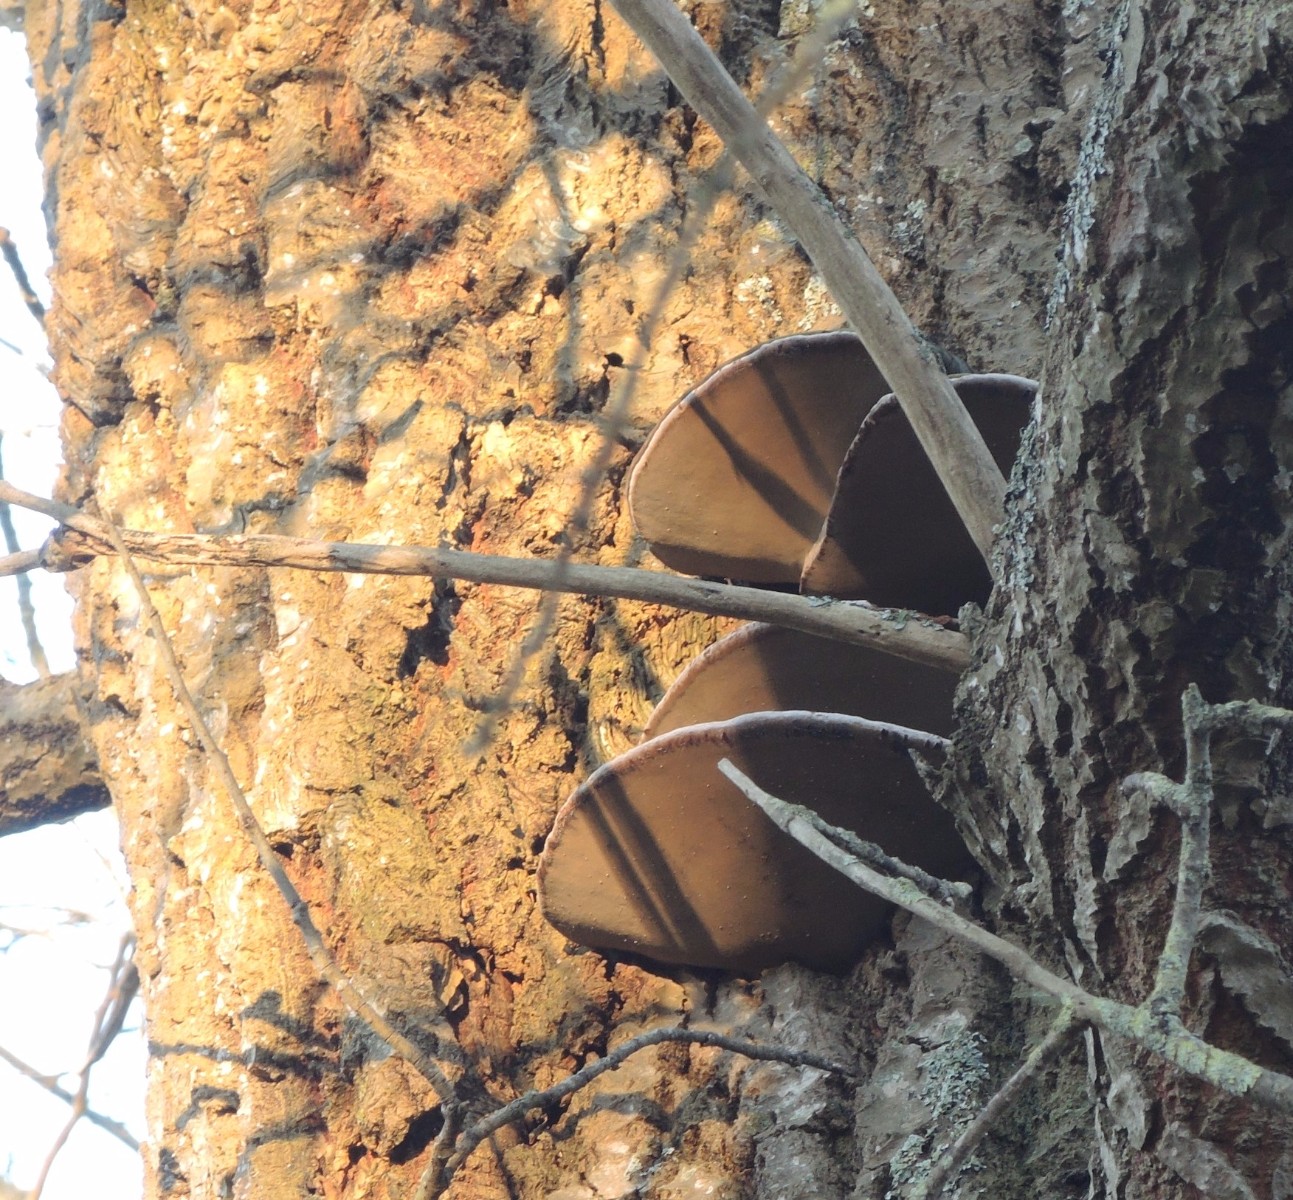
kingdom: Fungi
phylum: Basidiomycota
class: Agaricomycetes
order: Hymenochaetales
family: Hymenochaetaceae
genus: Phellinus
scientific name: Phellinus populicola
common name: poppel-ildporesvamp
